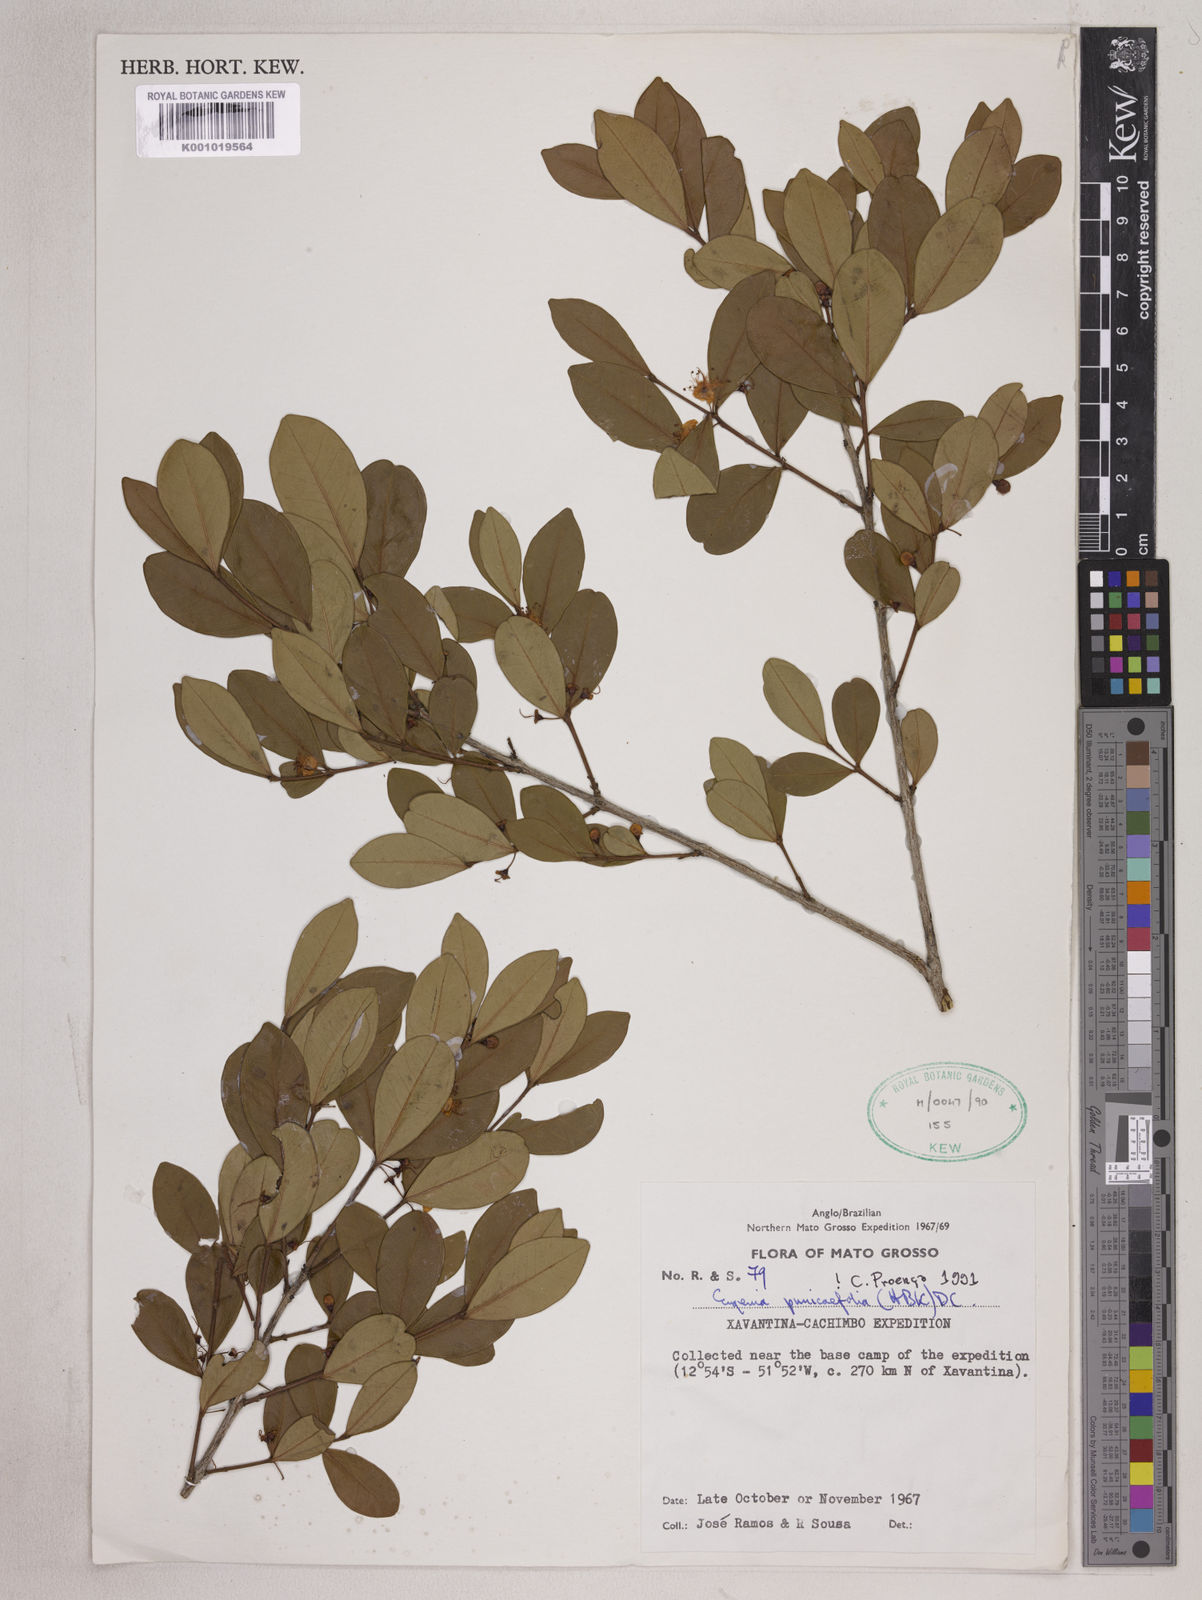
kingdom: Plantae
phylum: Tracheophyta
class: Magnoliopsida
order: Myrtales
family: Myrtaceae
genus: Eugenia
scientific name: Eugenia punicifolia
